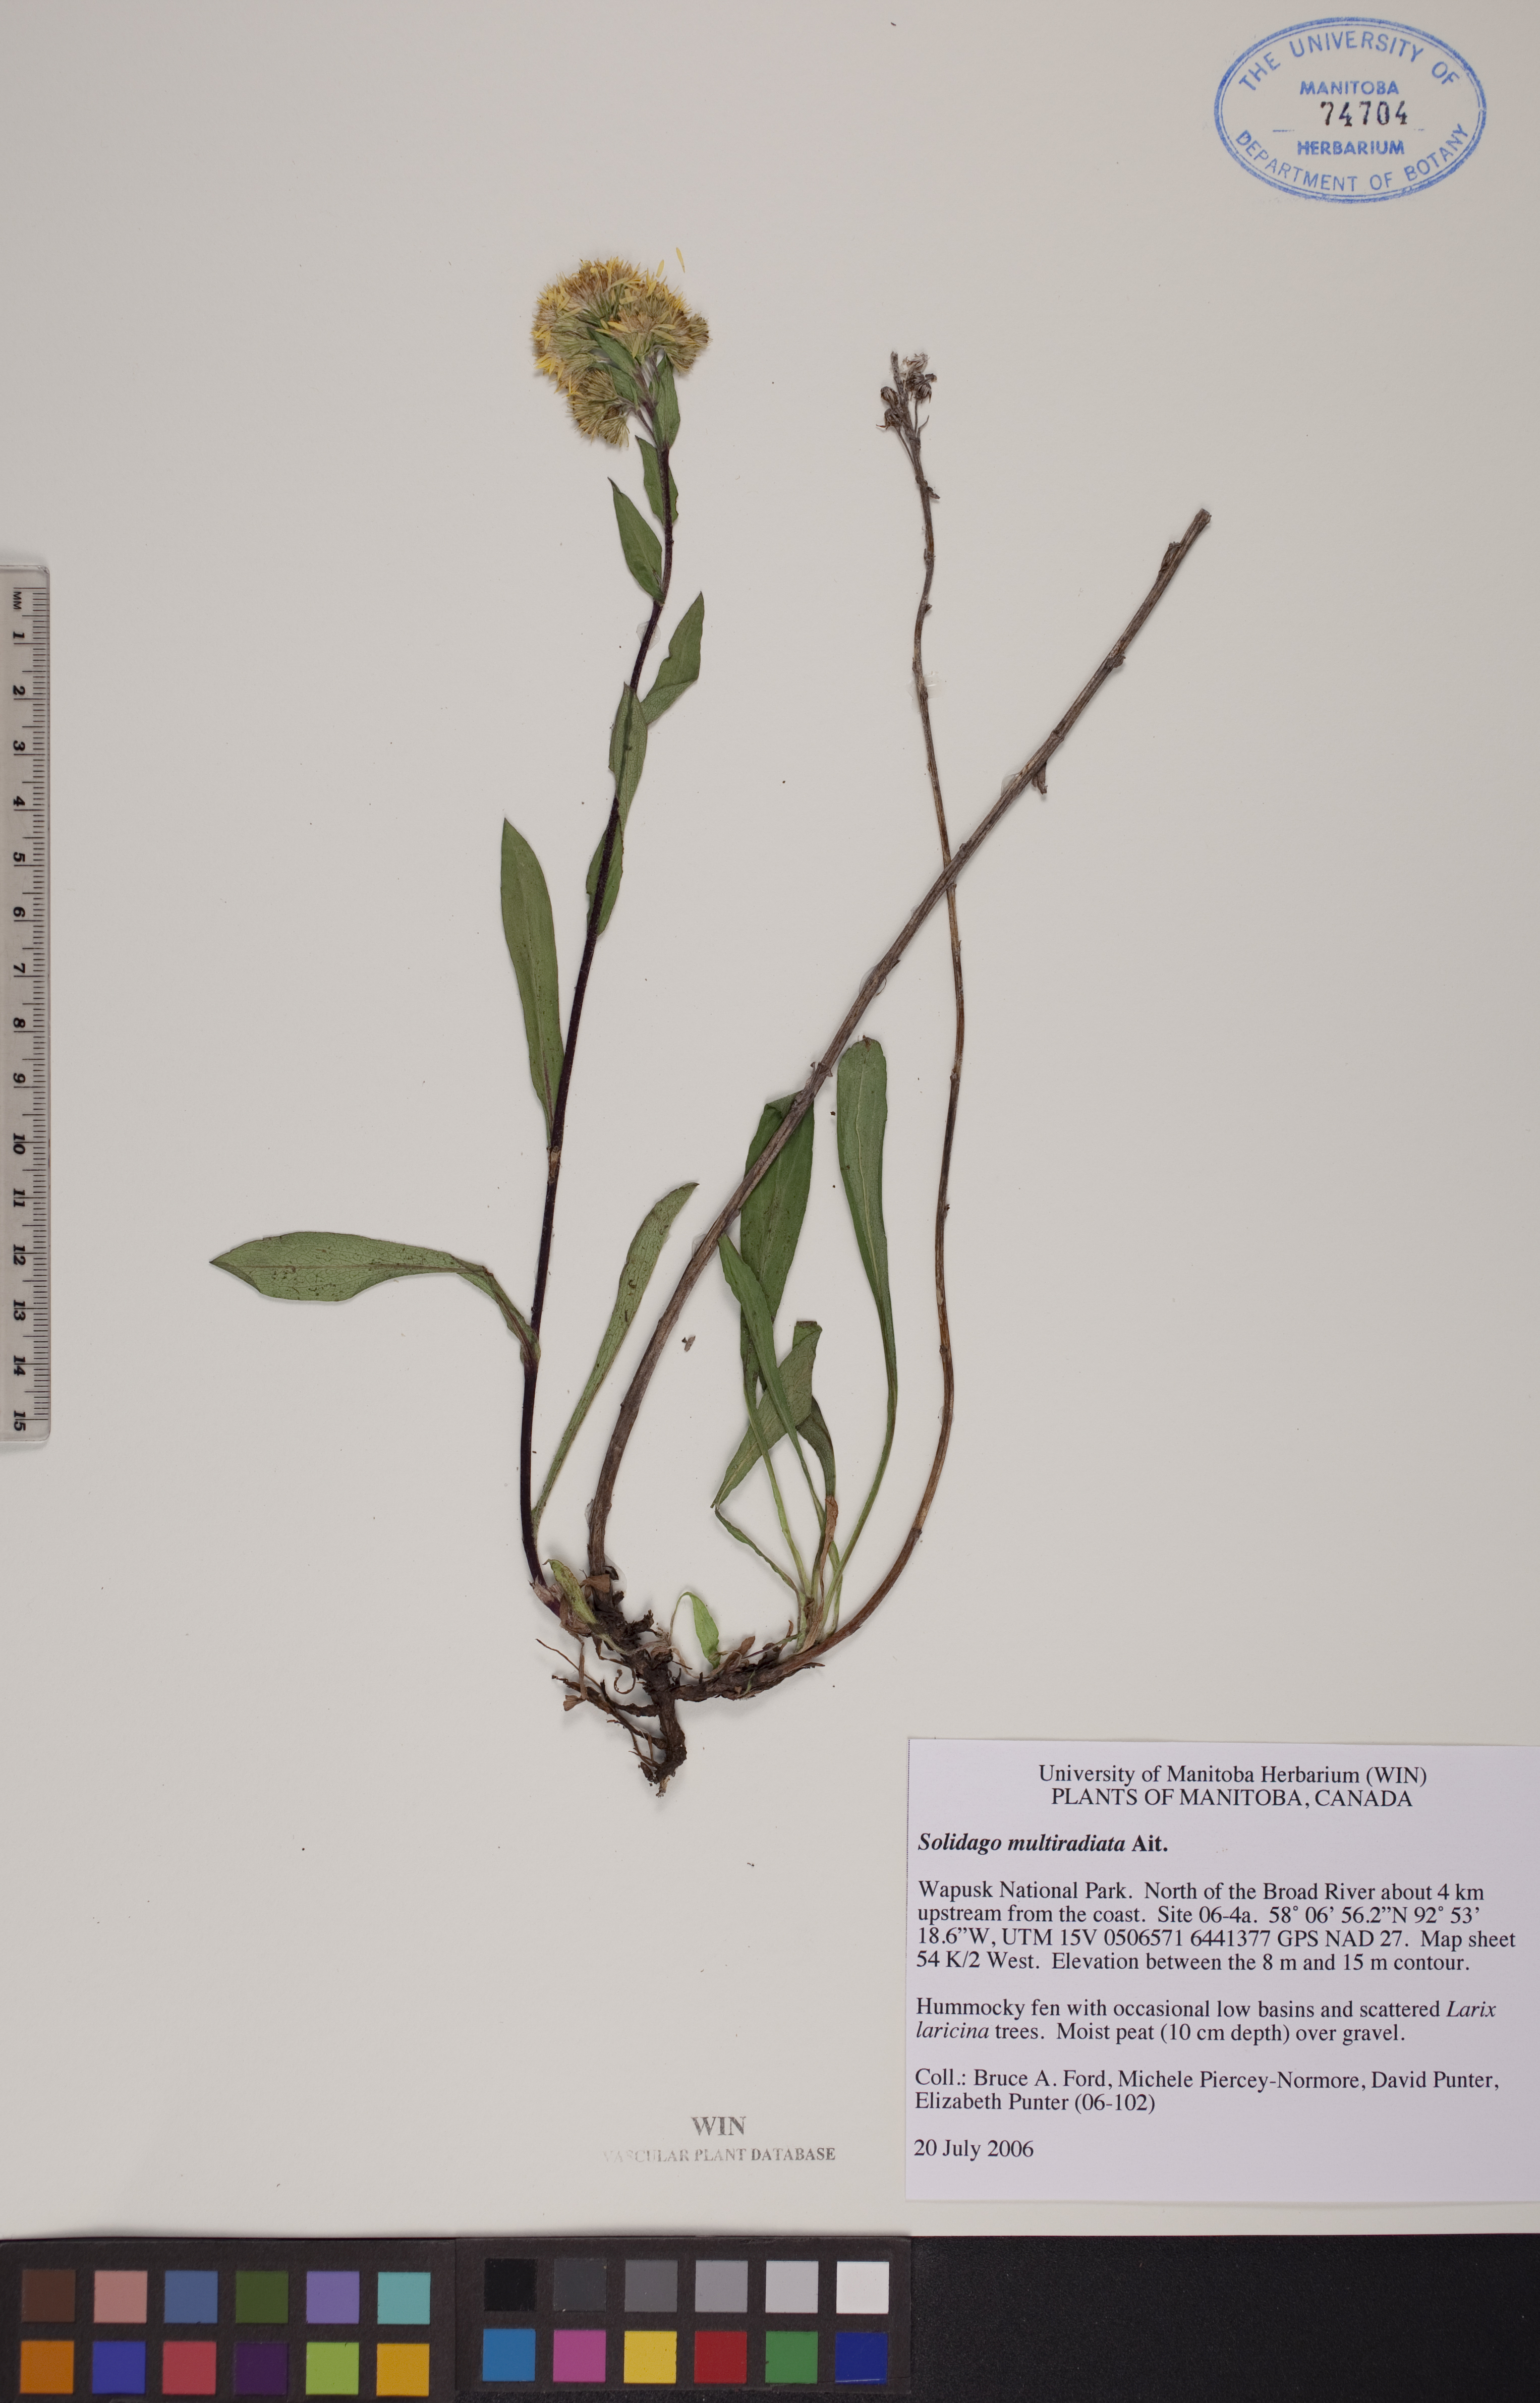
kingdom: Plantae
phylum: Tracheophyta
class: Magnoliopsida
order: Asterales
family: Asteraceae
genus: Solidago
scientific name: Solidago multiradiata
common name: Northern goldenrod
